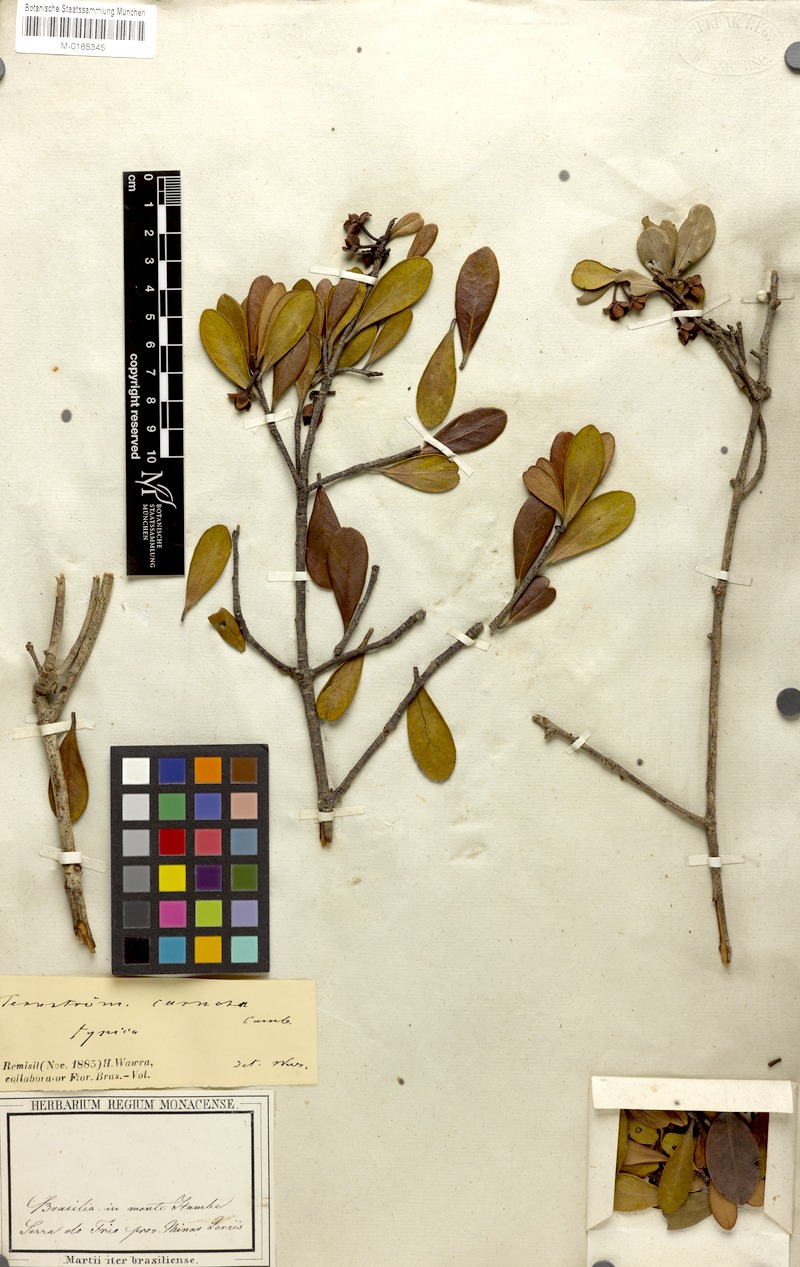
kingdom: Plantae
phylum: Tracheophyta
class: Magnoliopsida
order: Ericales
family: Pentaphylacaceae
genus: Ternstroemia
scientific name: Ternstroemia carnosa
